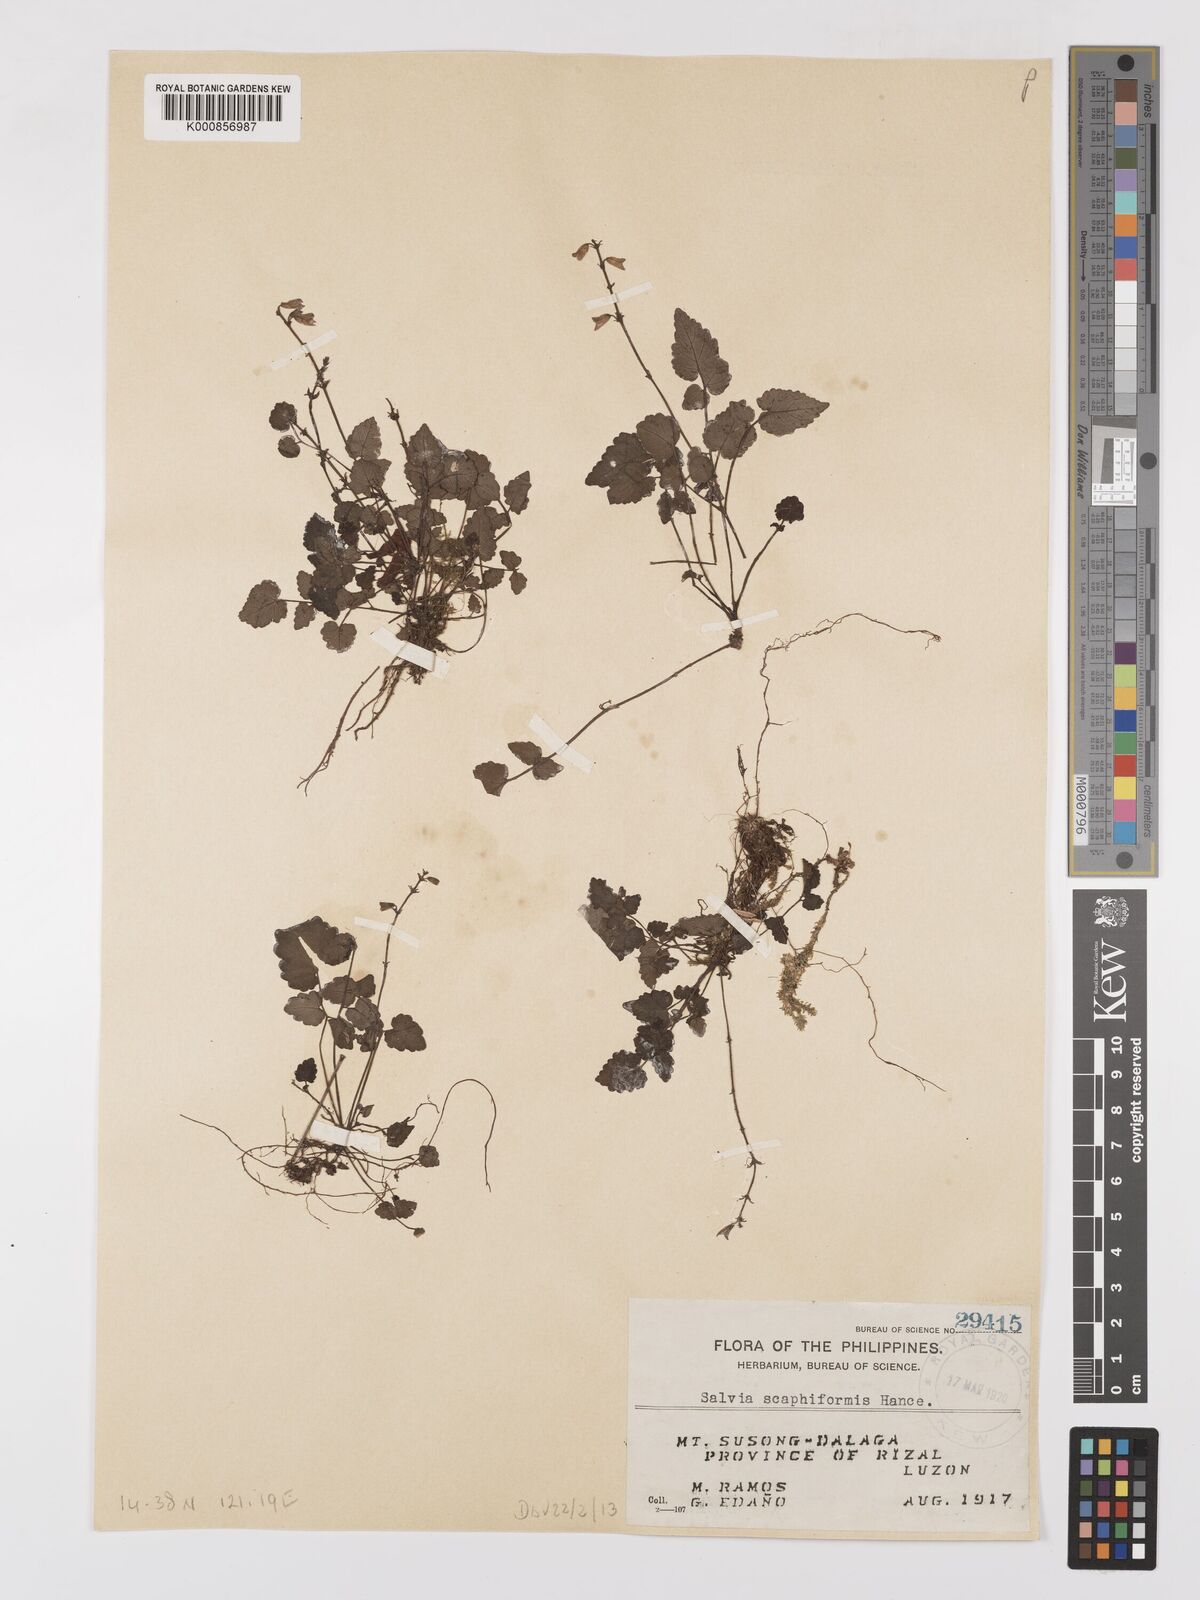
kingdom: Plantae
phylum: Tracheophyta
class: Magnoliopsida
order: Lamiales
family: Lamiaceae
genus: Salvia
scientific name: Salvia scapiformis
